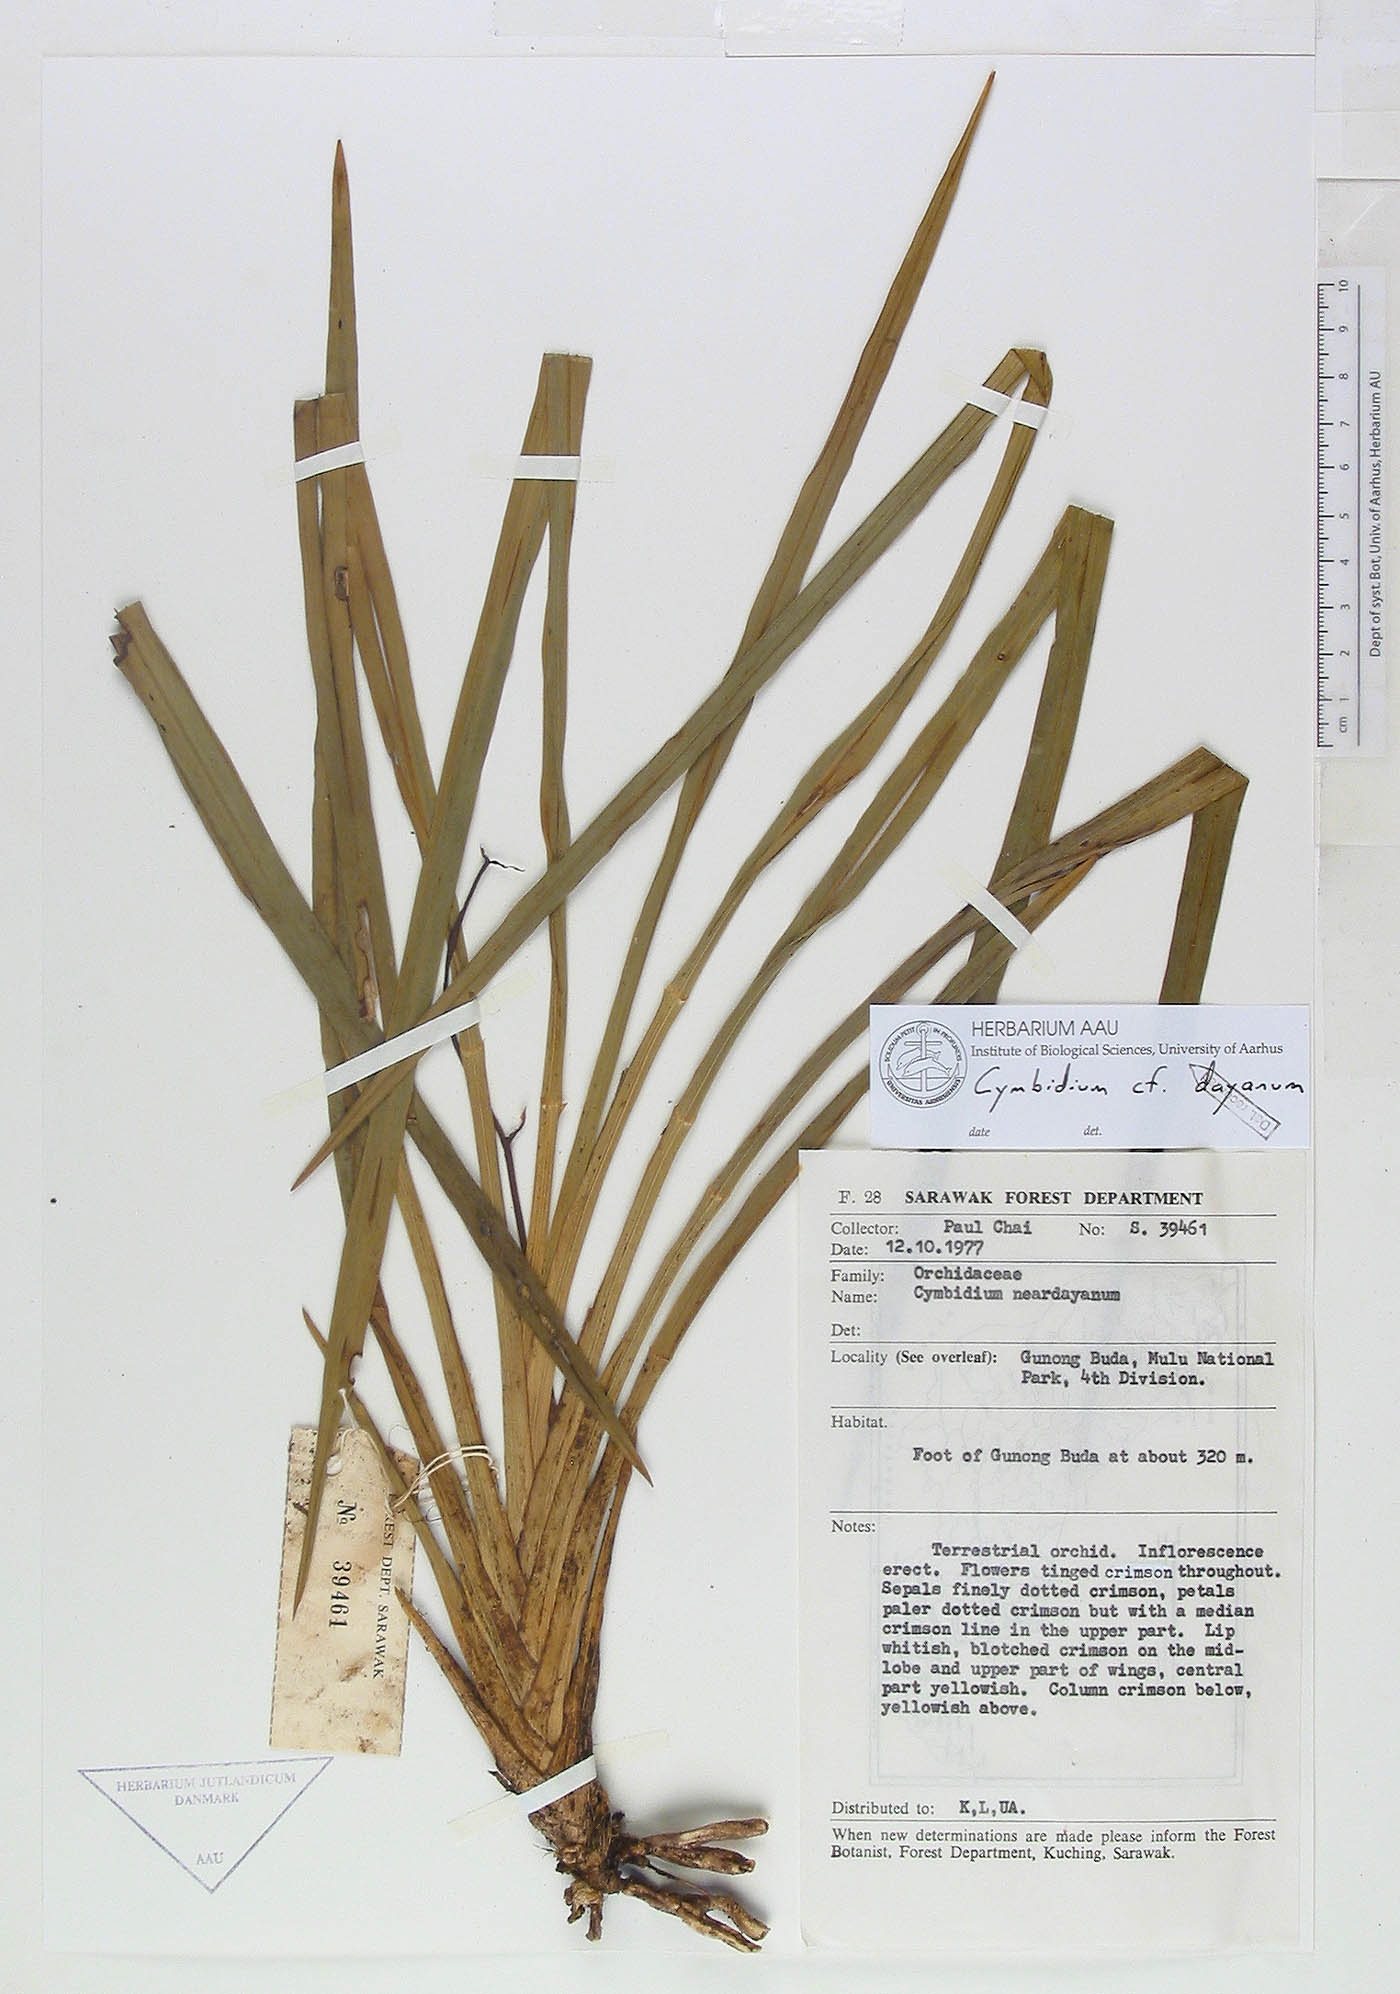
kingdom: Plantae
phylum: Tracheophyta
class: Liliopsida
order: Asparagales
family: Orchidaceae
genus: Cymbidium
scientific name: Cymbidium dayanum
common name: Orchid
